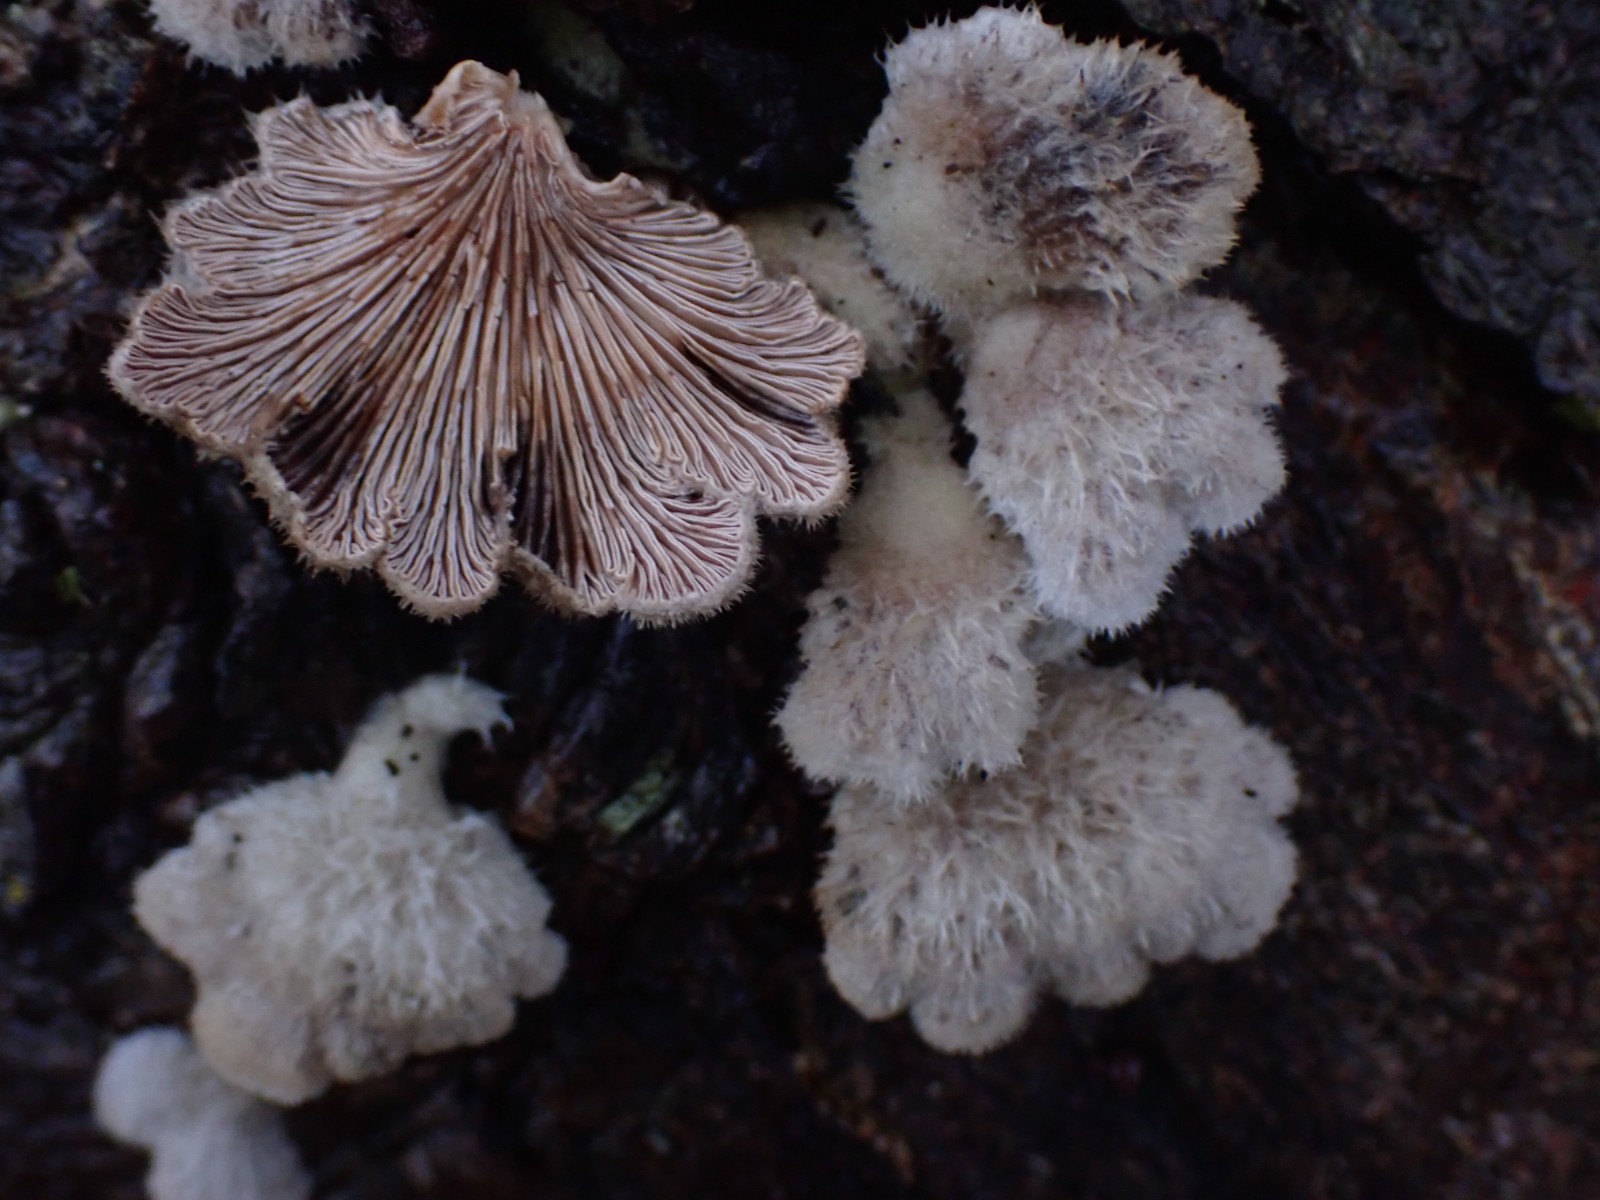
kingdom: Fungi
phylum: Basidiomycota
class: Agaricomycetes
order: Agaricales
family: Schizophyllaceae
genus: Schizophyllum
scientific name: Schizophyllum commune
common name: kløvblad
